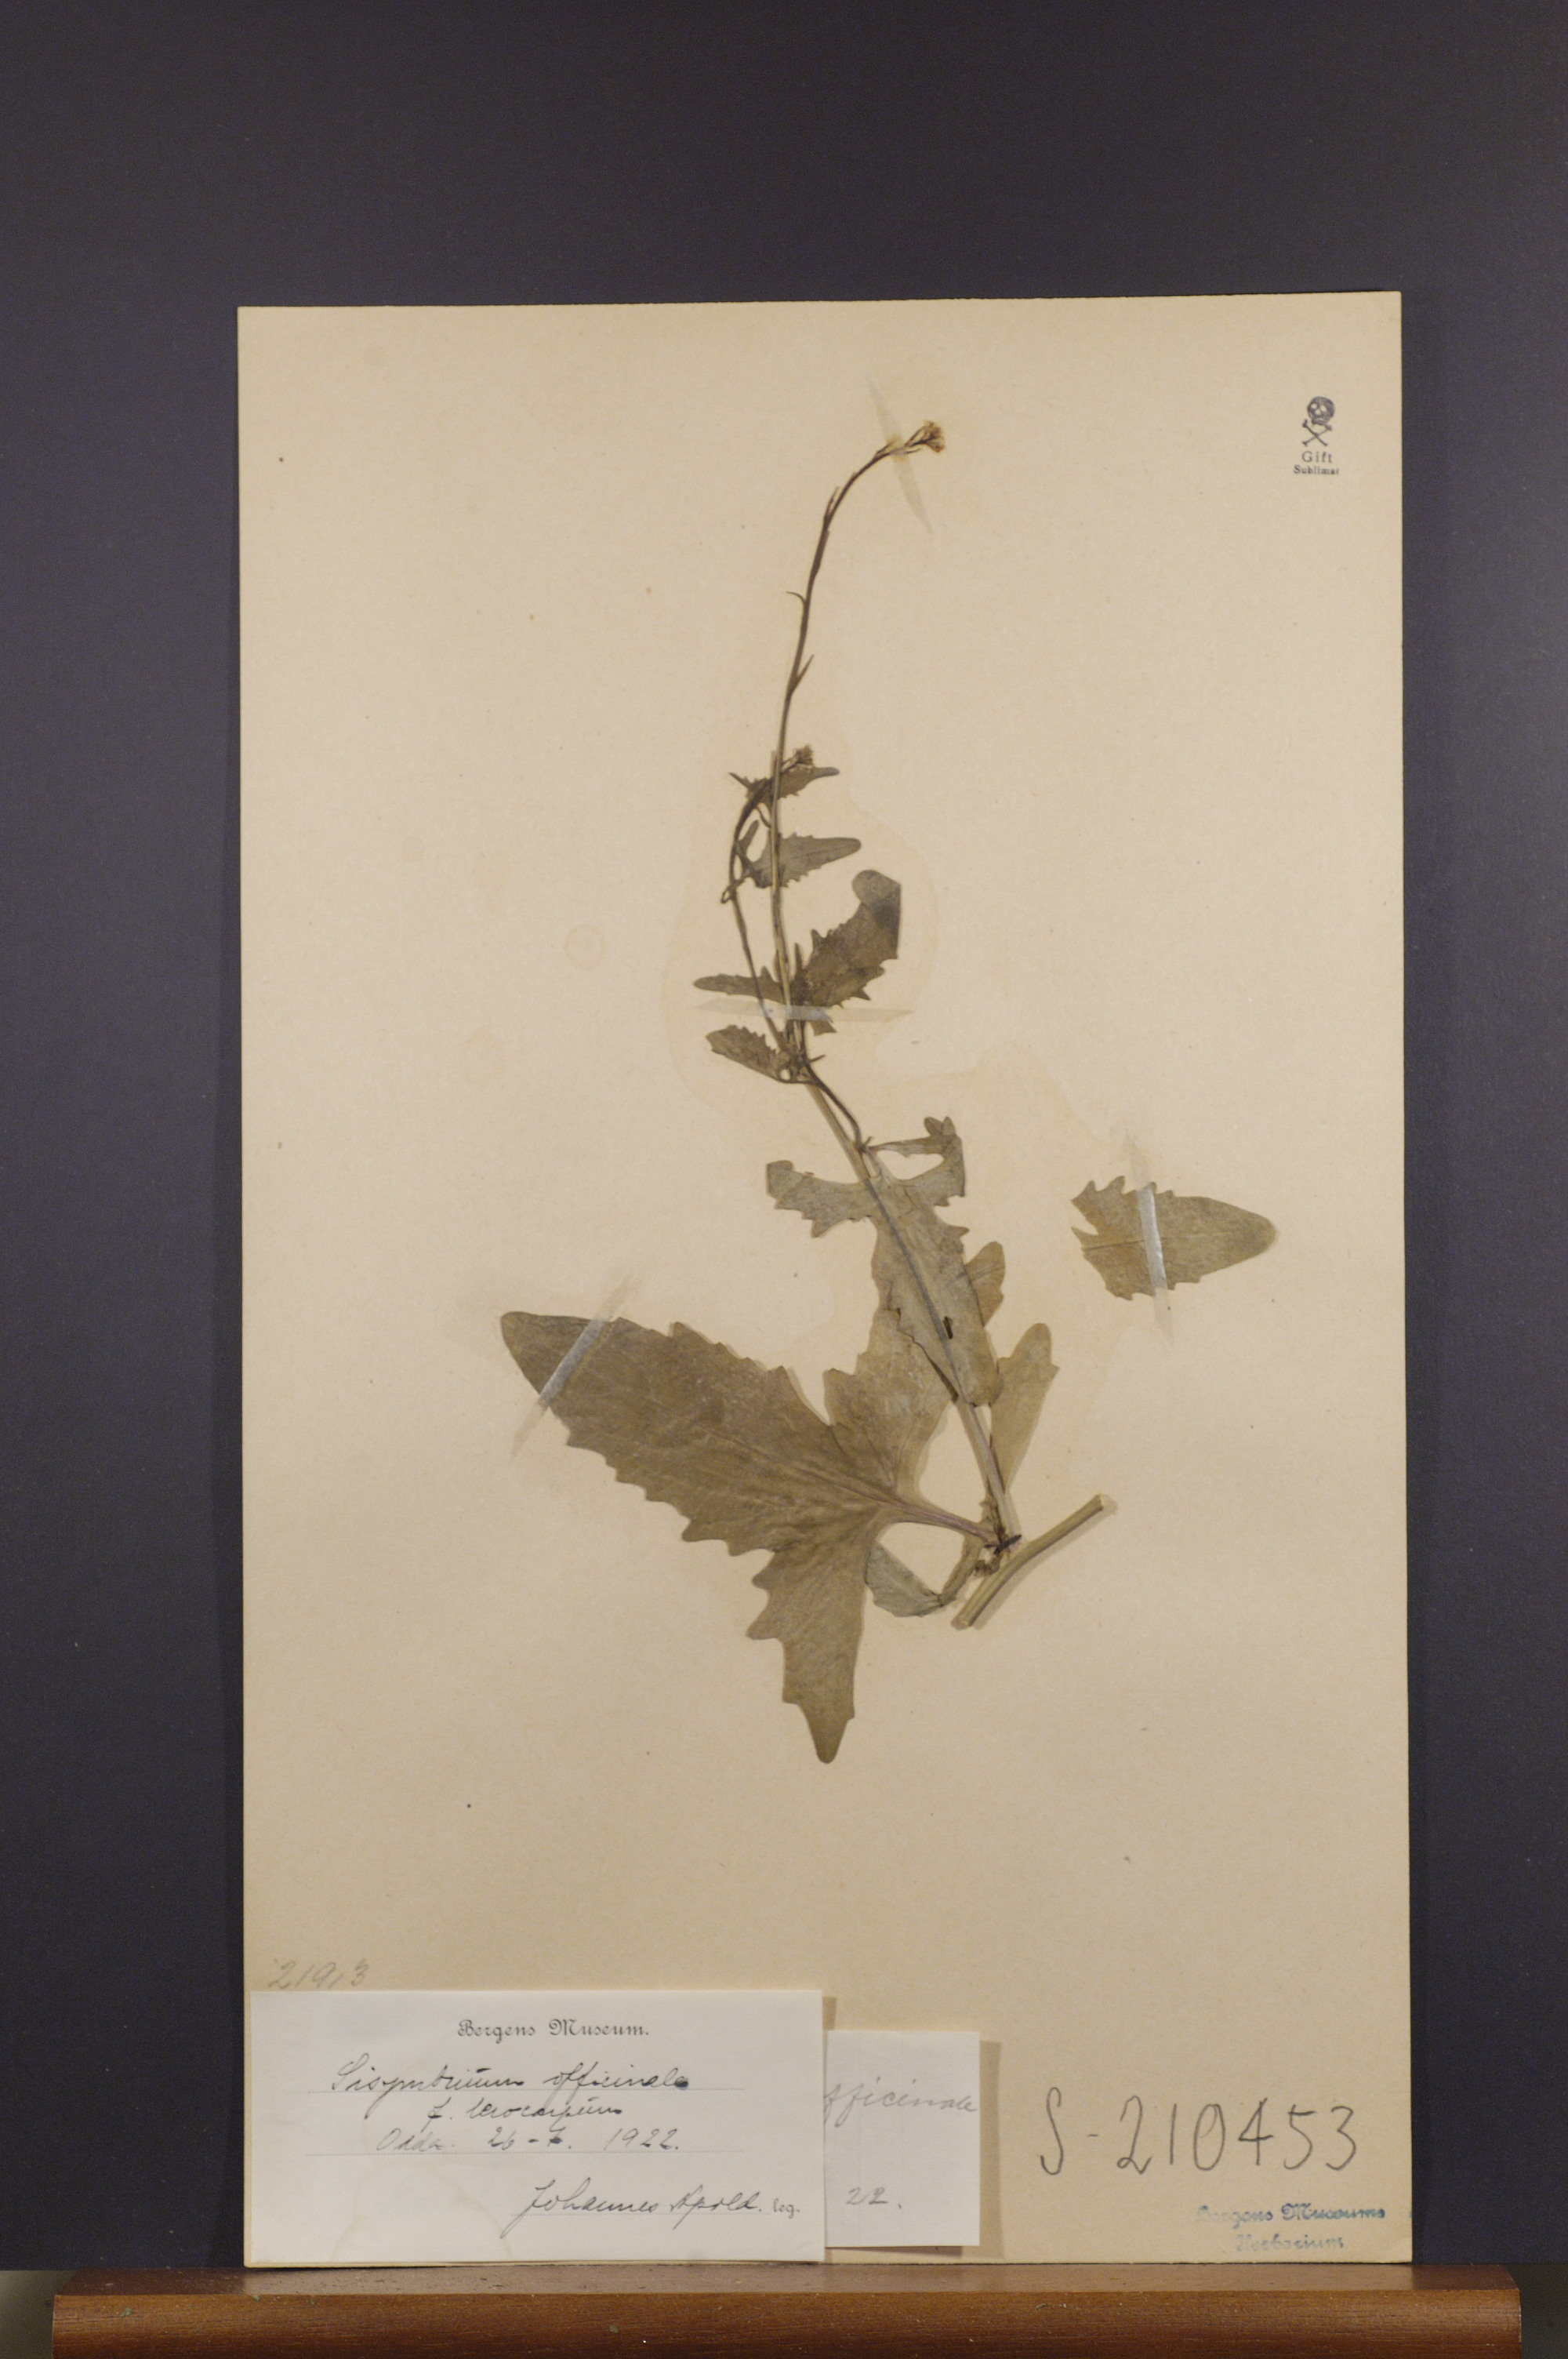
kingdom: Plantae
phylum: Tracheophyta
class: Magnoliopsida
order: Brassicales
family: Brassicaceae
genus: Sisymbrium
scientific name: Sisymbrium officinale
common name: Hedge mustard
